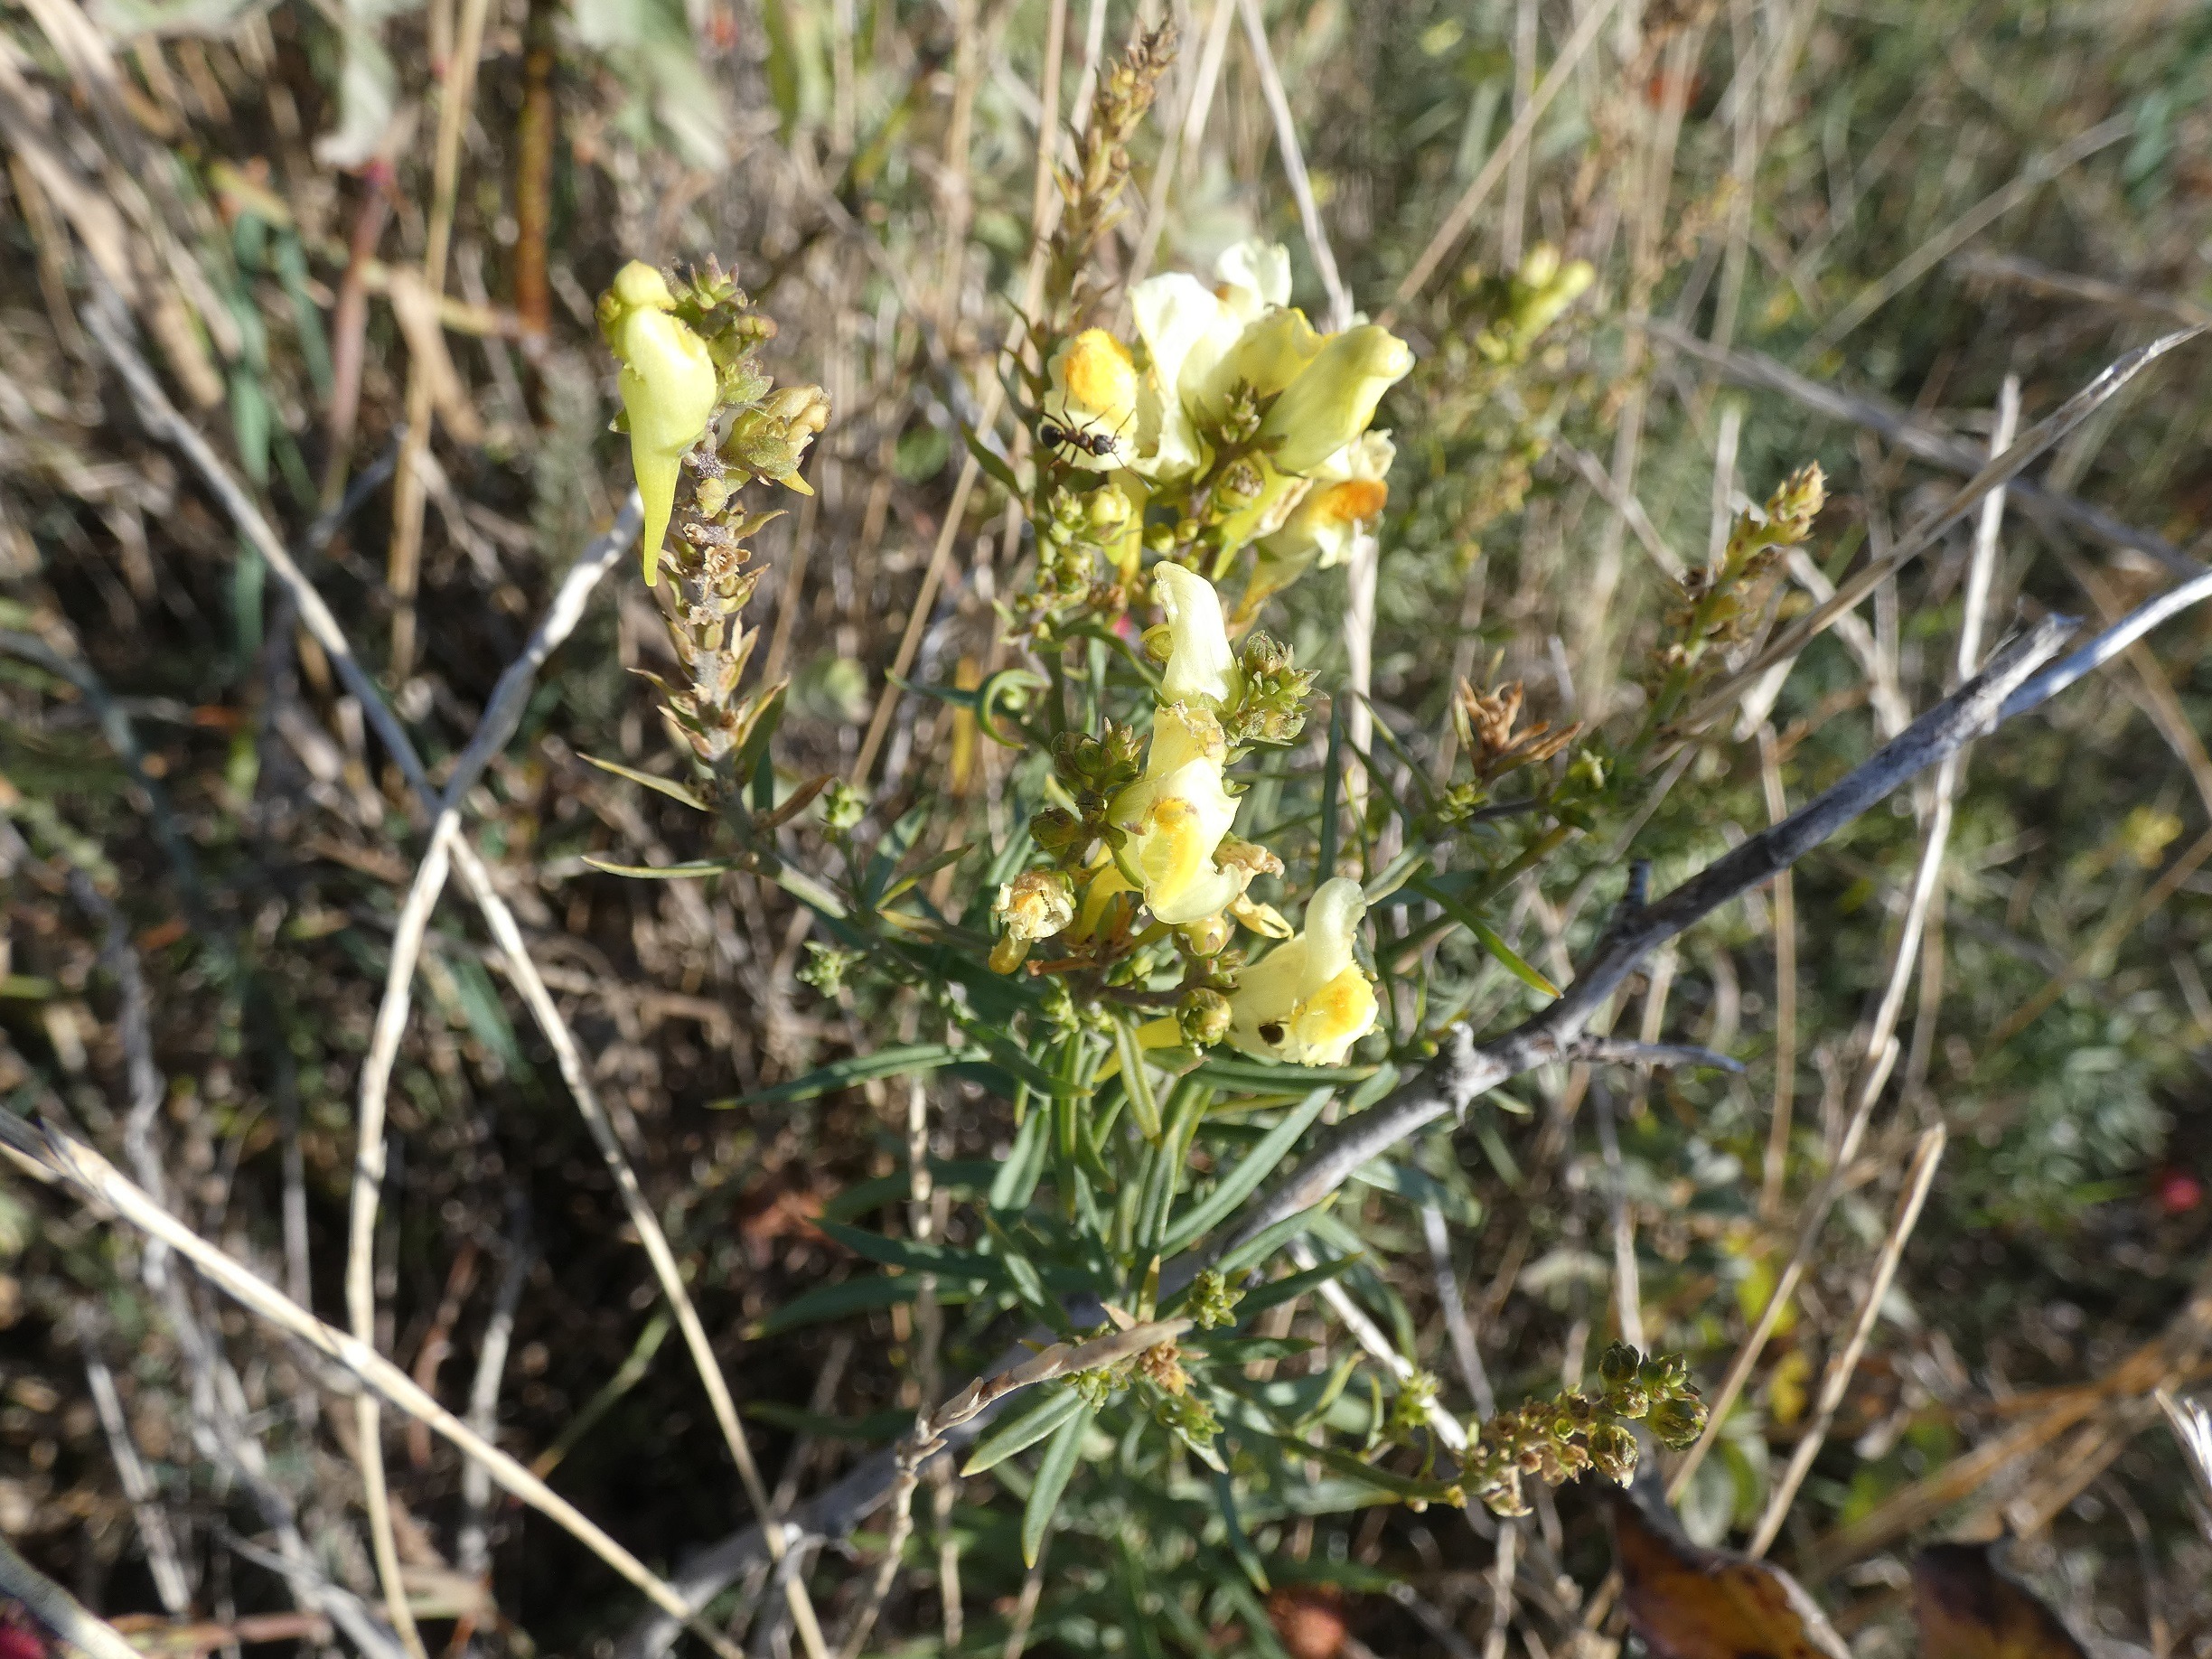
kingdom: Plantae
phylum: Tracheophyta
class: Magnoliopsida
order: Lamiales
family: Plantaginaceae
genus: Linaria
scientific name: Linaria vulgaris
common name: Almindelig torskemund
